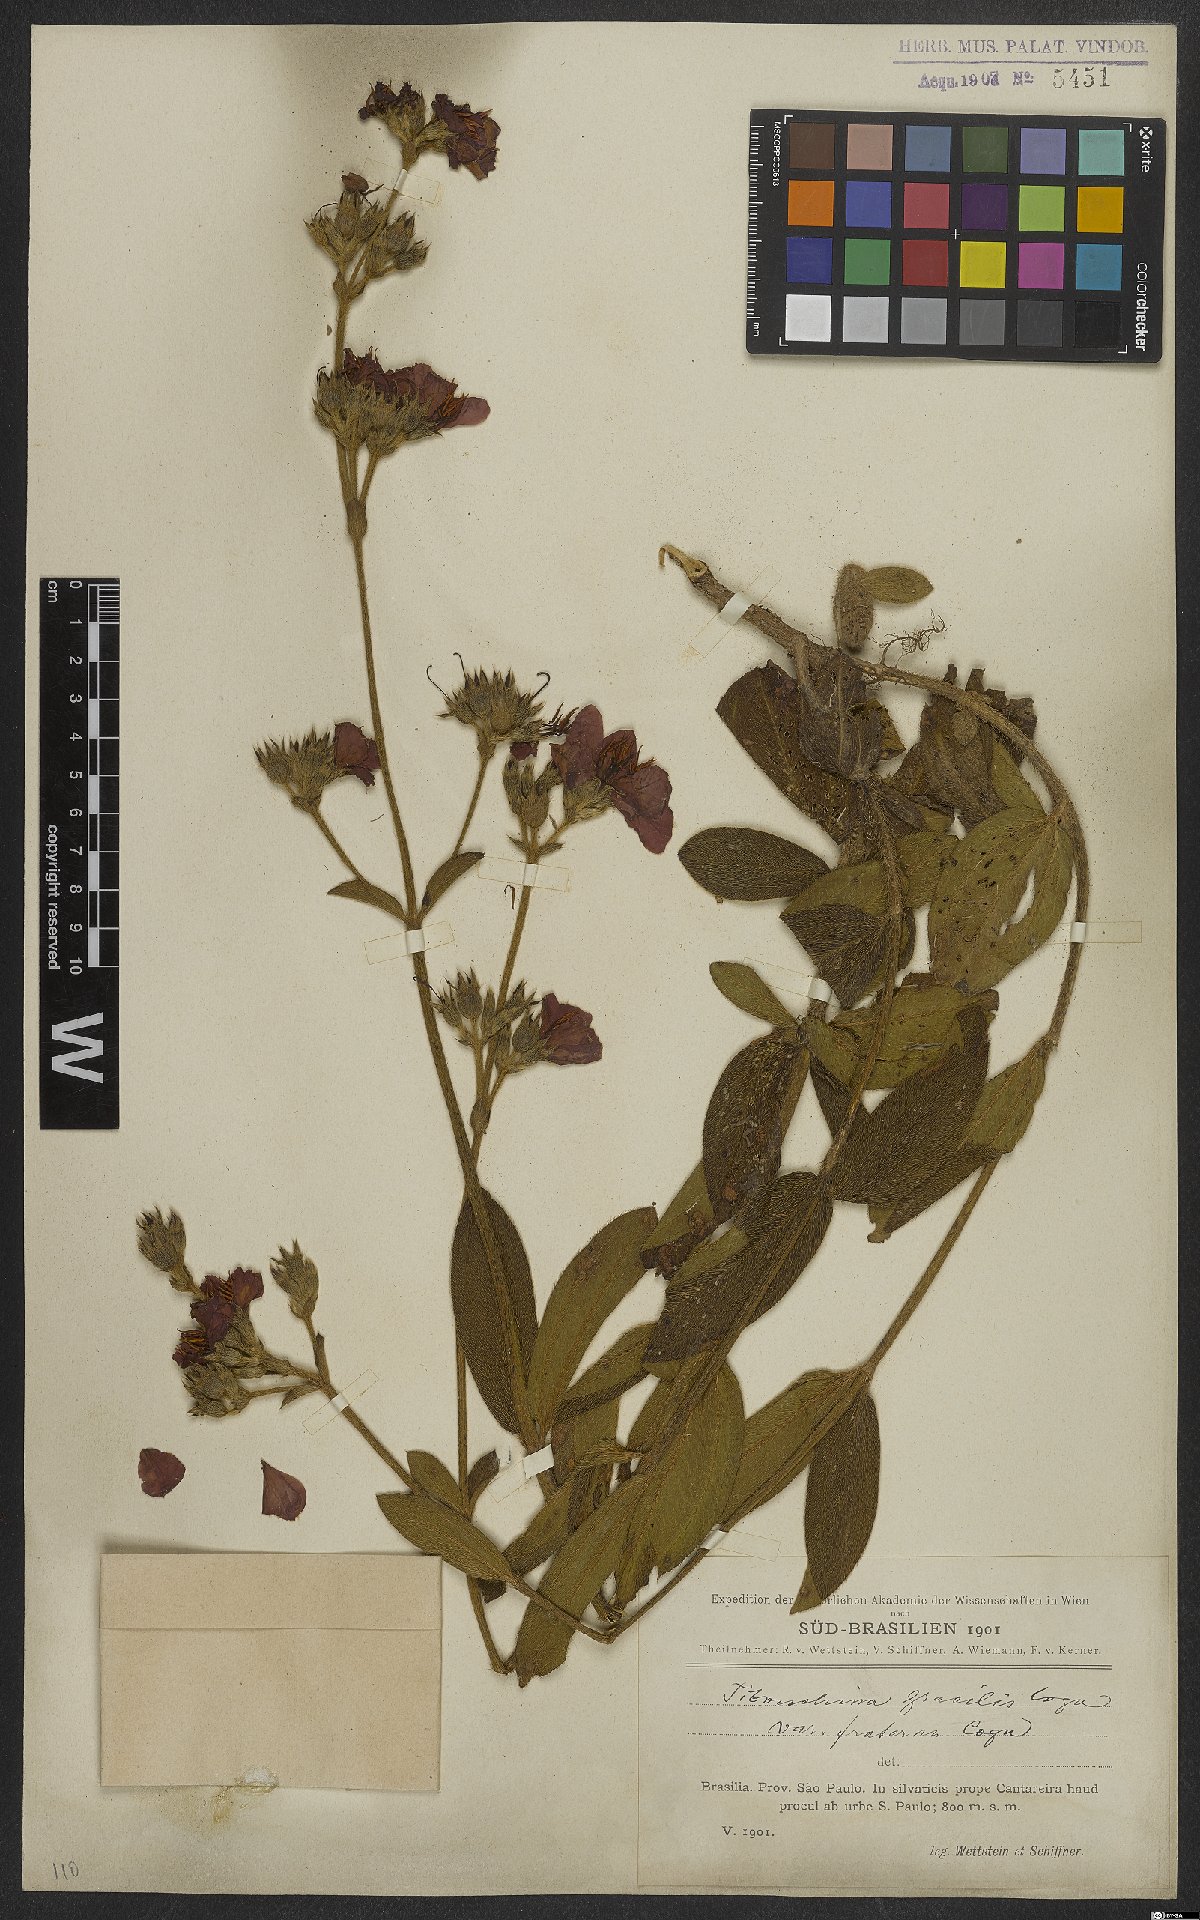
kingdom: Plantae
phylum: Tracheophyta
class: Magnoliopsida
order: Myrtales
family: Melastomataceae
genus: Chaetogastra
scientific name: Chaetogastra gracilis
